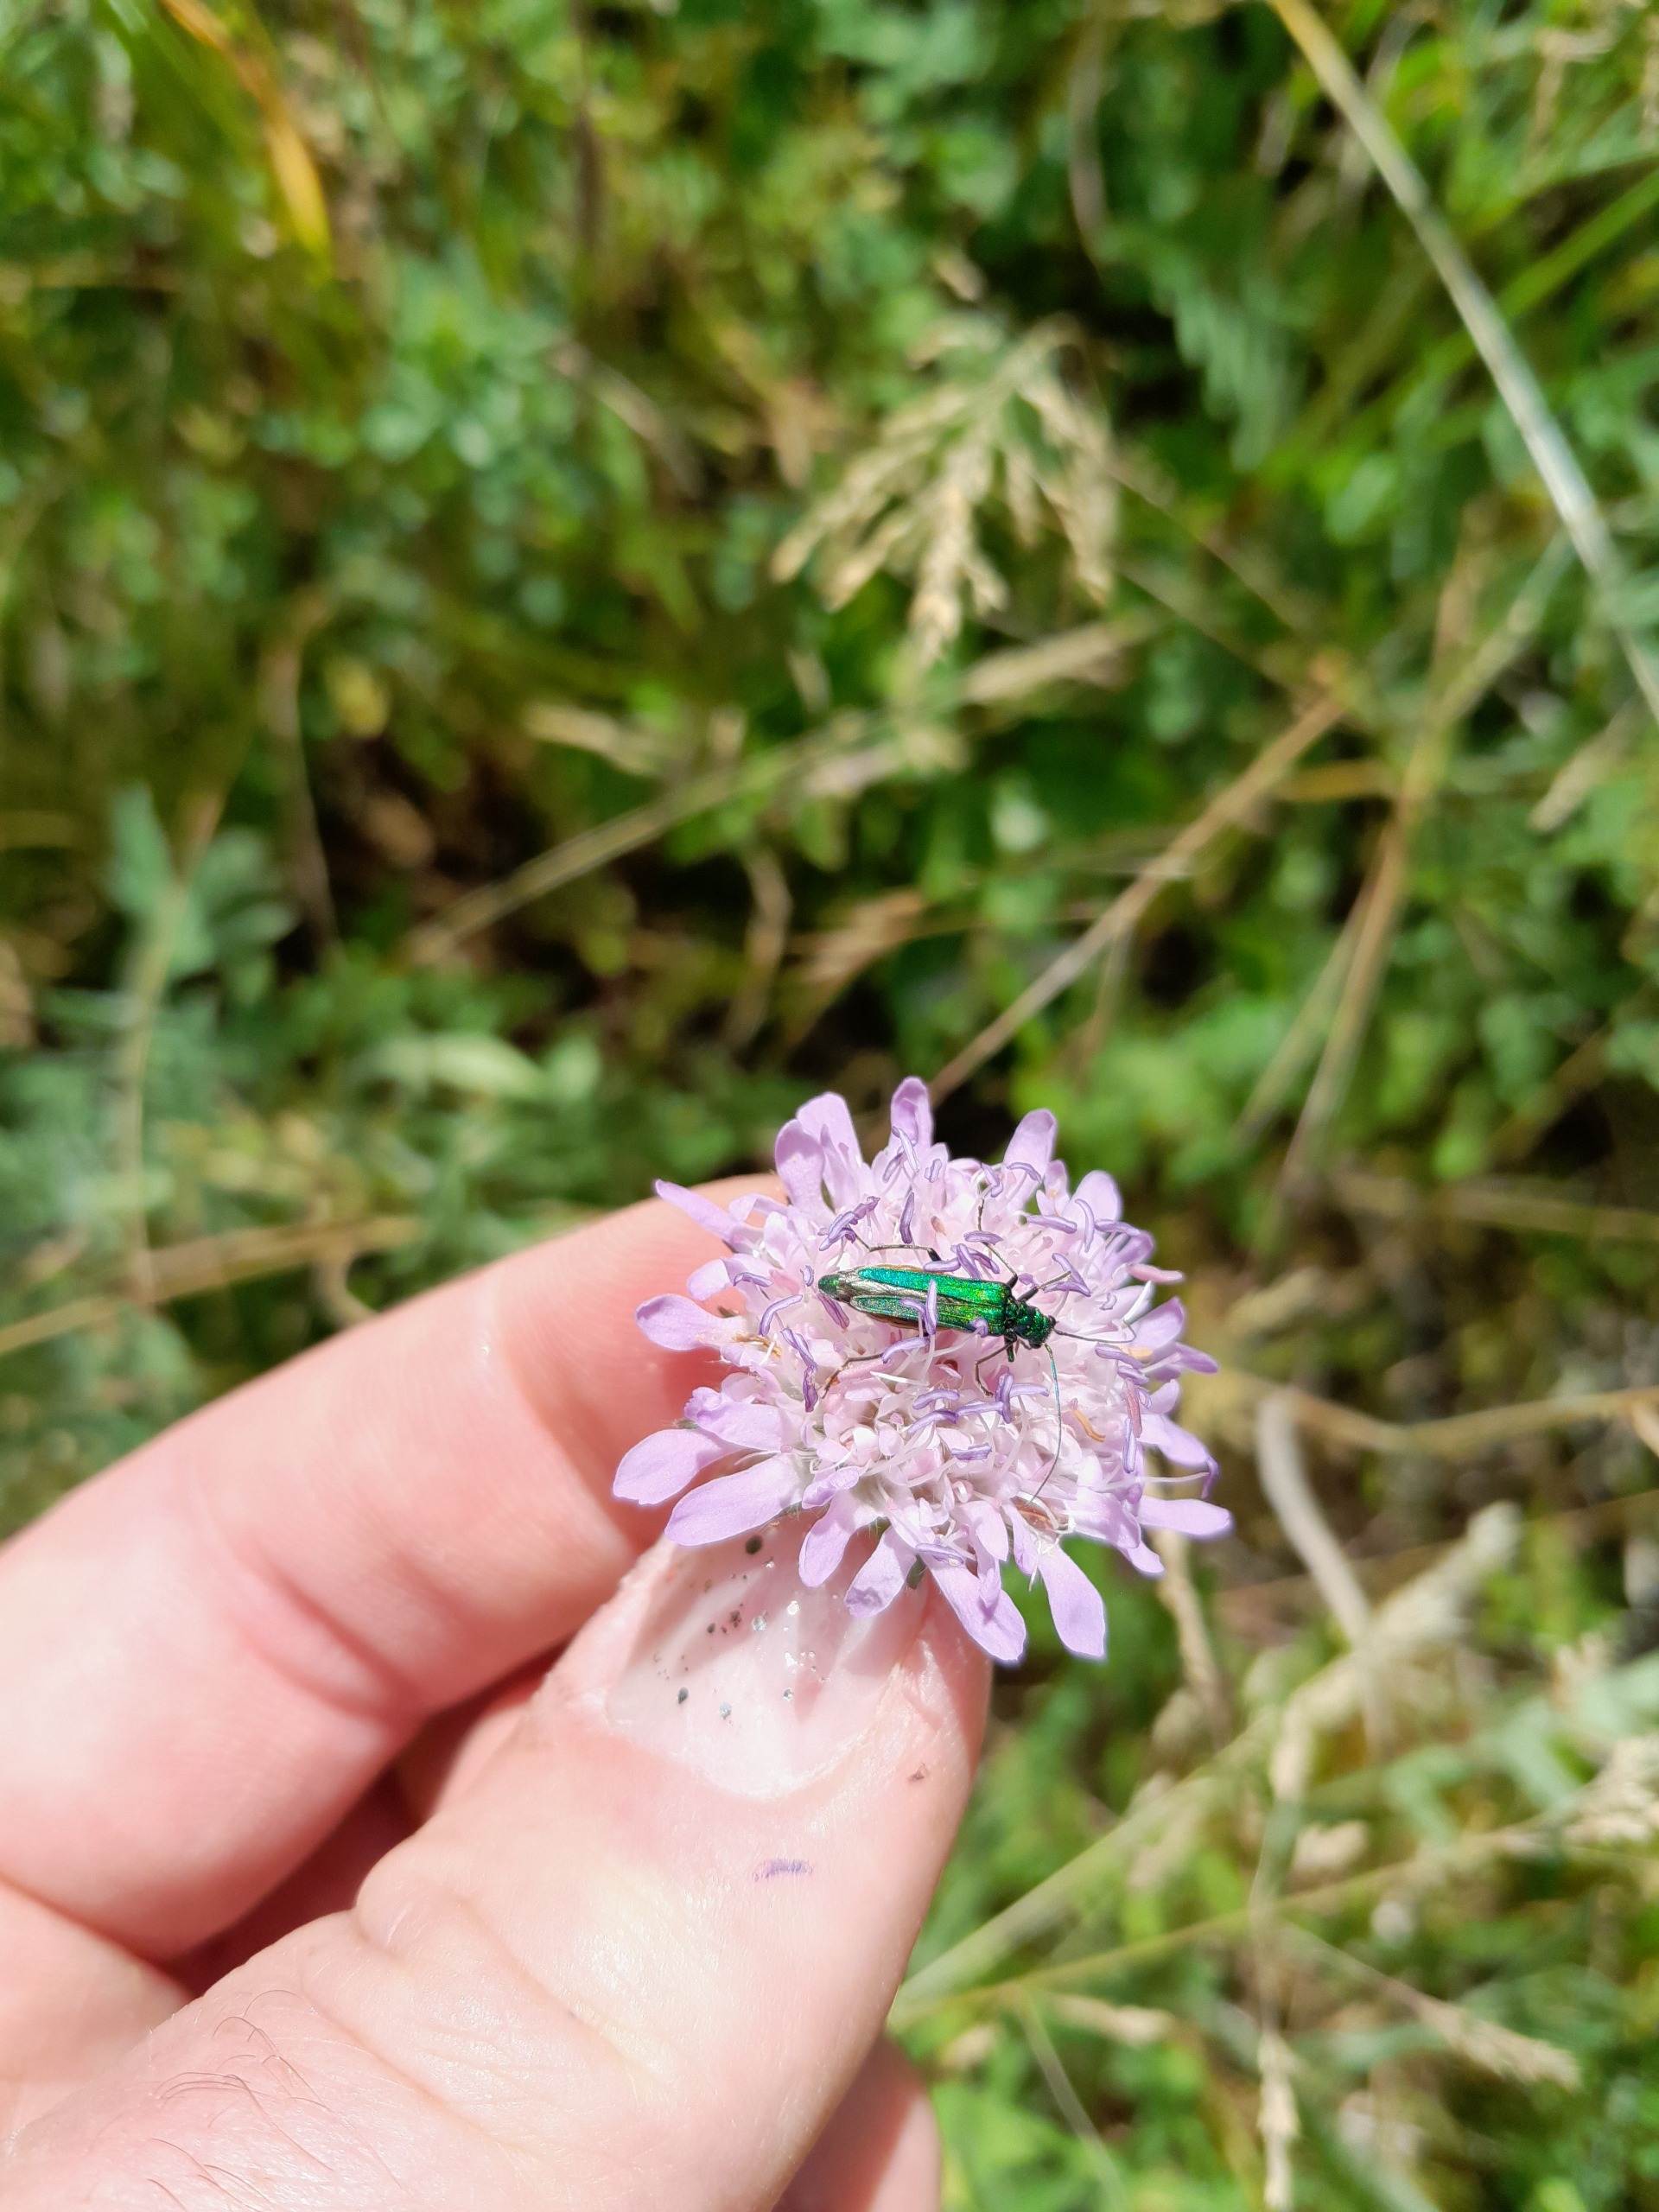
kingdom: Animalia
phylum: Arthropoda
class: Insecta
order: Coleoptera
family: Oedemeridae
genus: Oedemera
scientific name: Oedemera nobilis
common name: Tyklårssolbille
